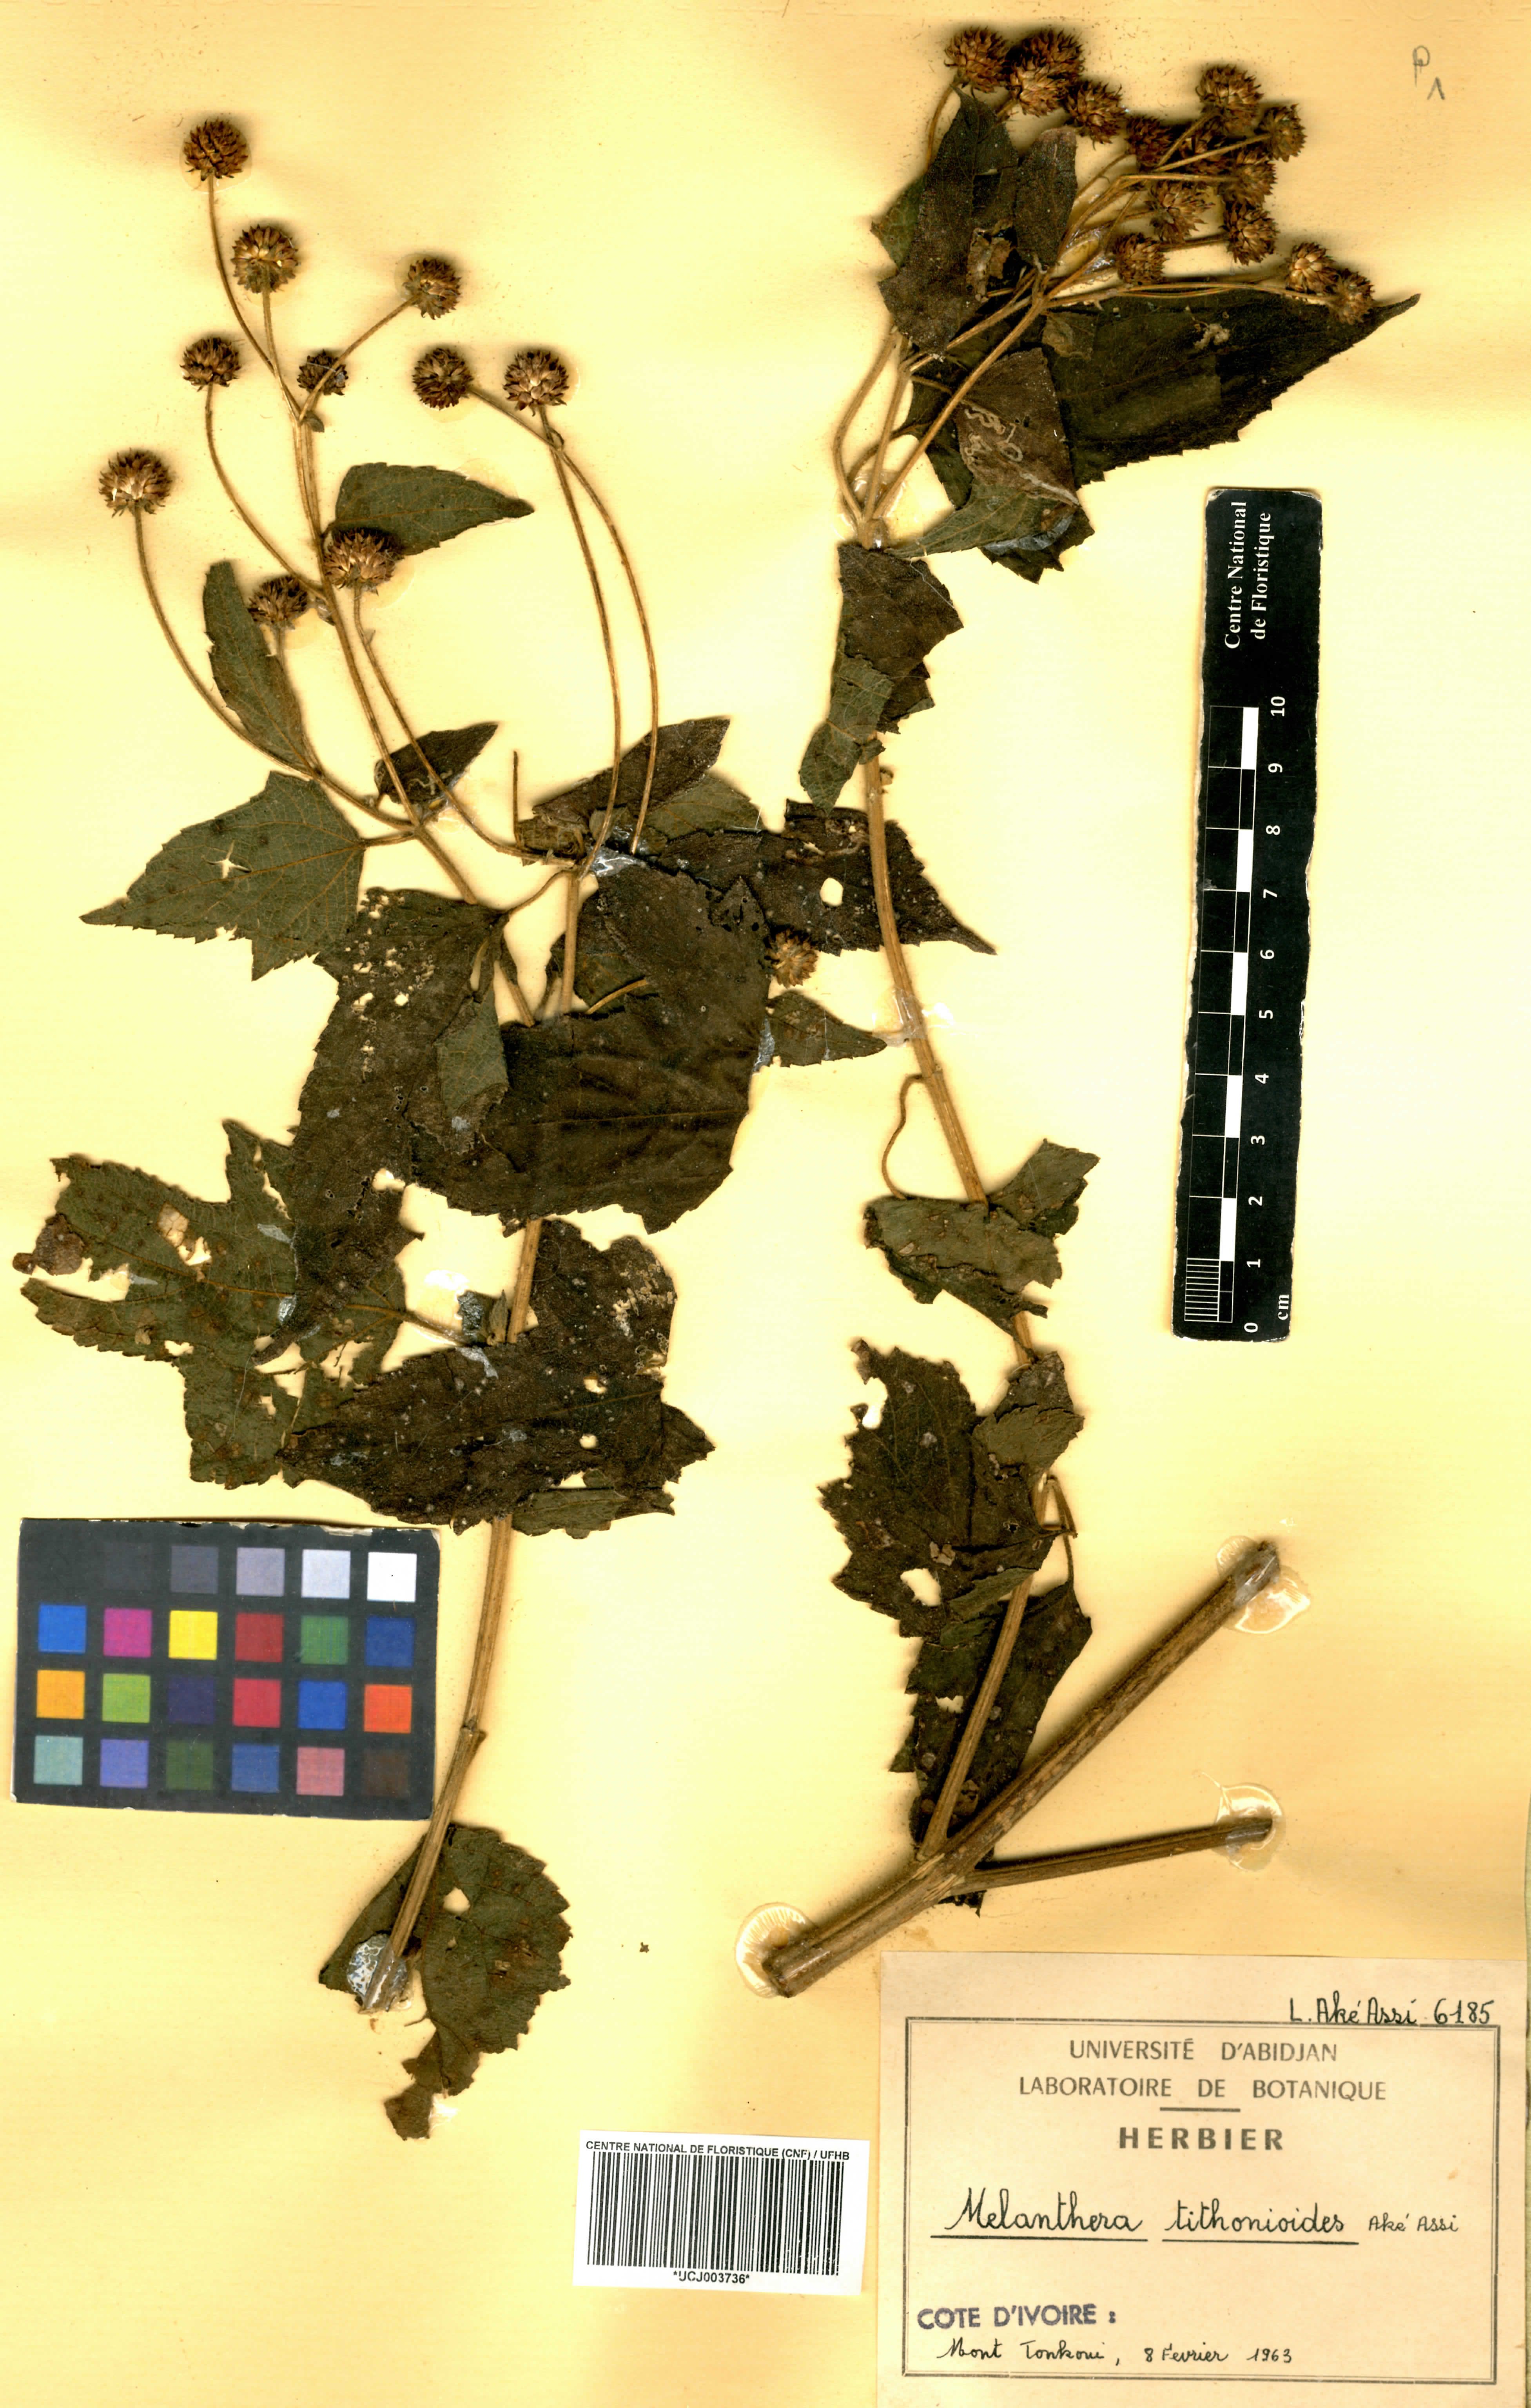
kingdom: Plantae
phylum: Tracheophyta
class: Magnoliopsida
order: Asterales
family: Asteraceae
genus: Lipotriche
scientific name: Lipotriche tithonioides
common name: Simandou daisy
